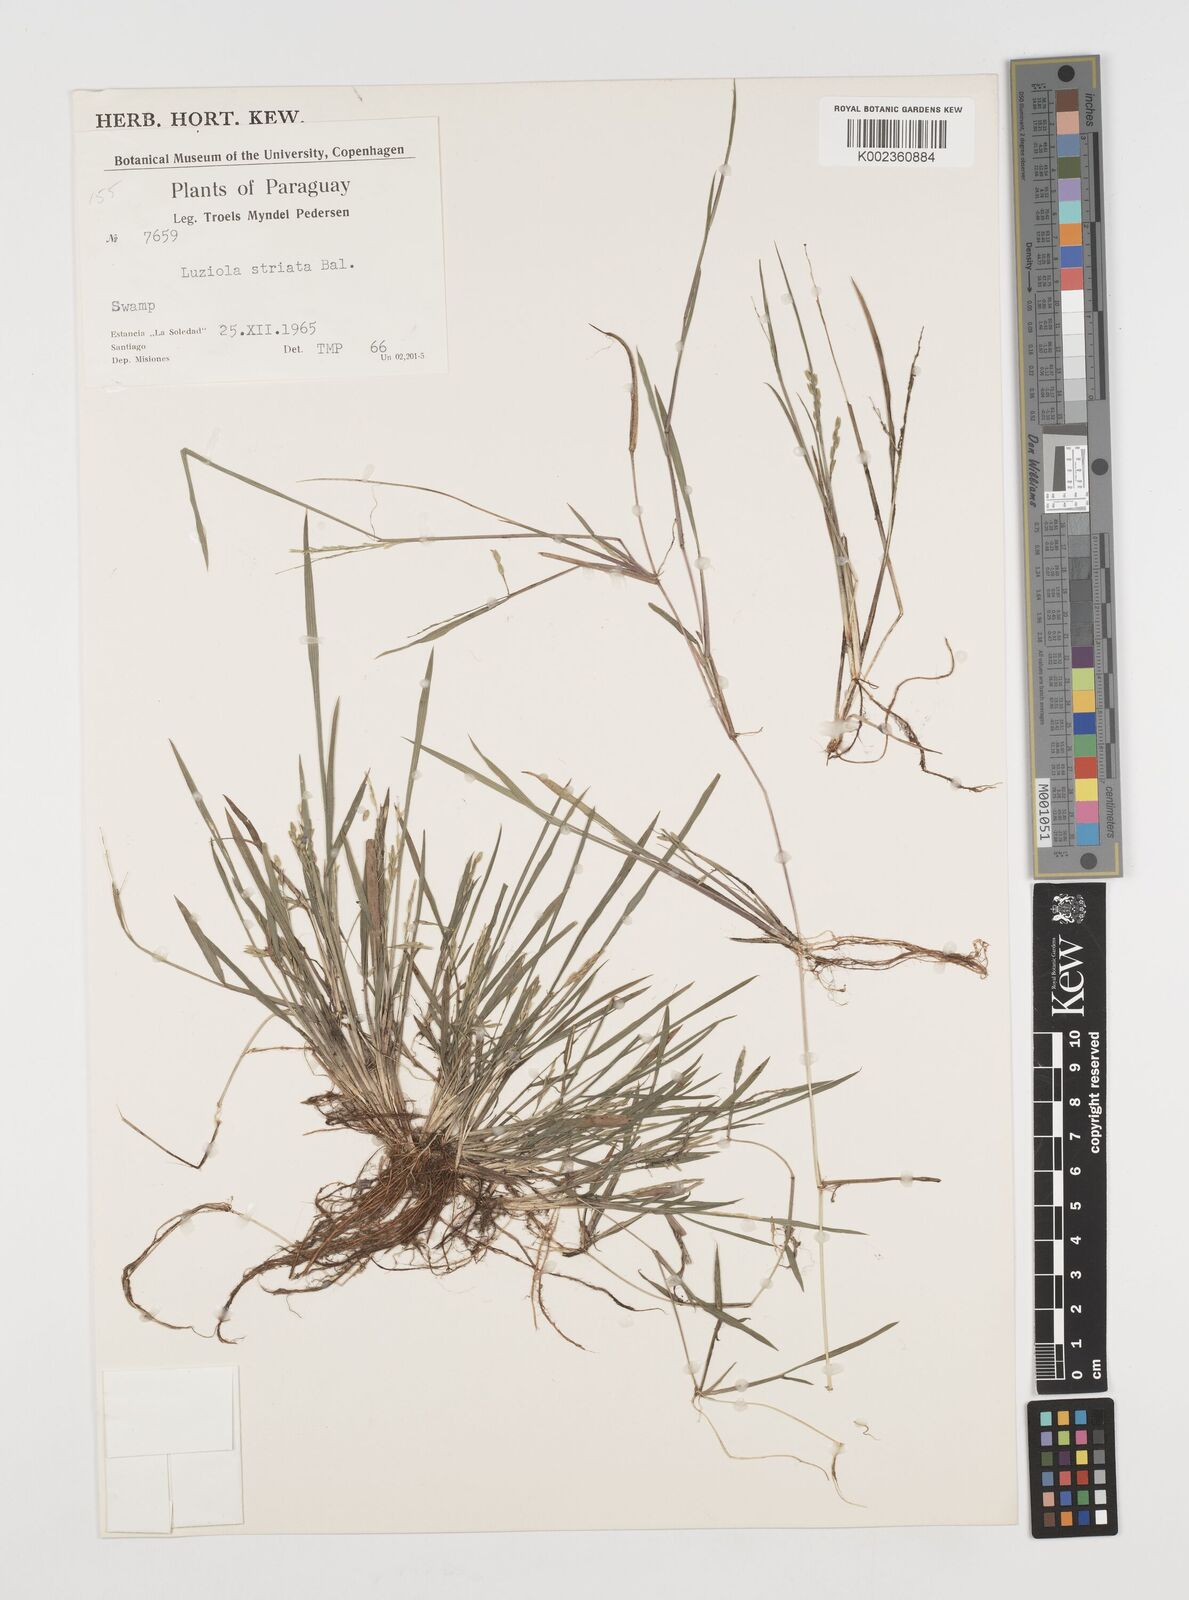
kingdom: Plantae
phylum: Tracheophyta
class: Liliopsida
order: Poales
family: Poaceae
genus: Luziola
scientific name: Luziola bahiensis
